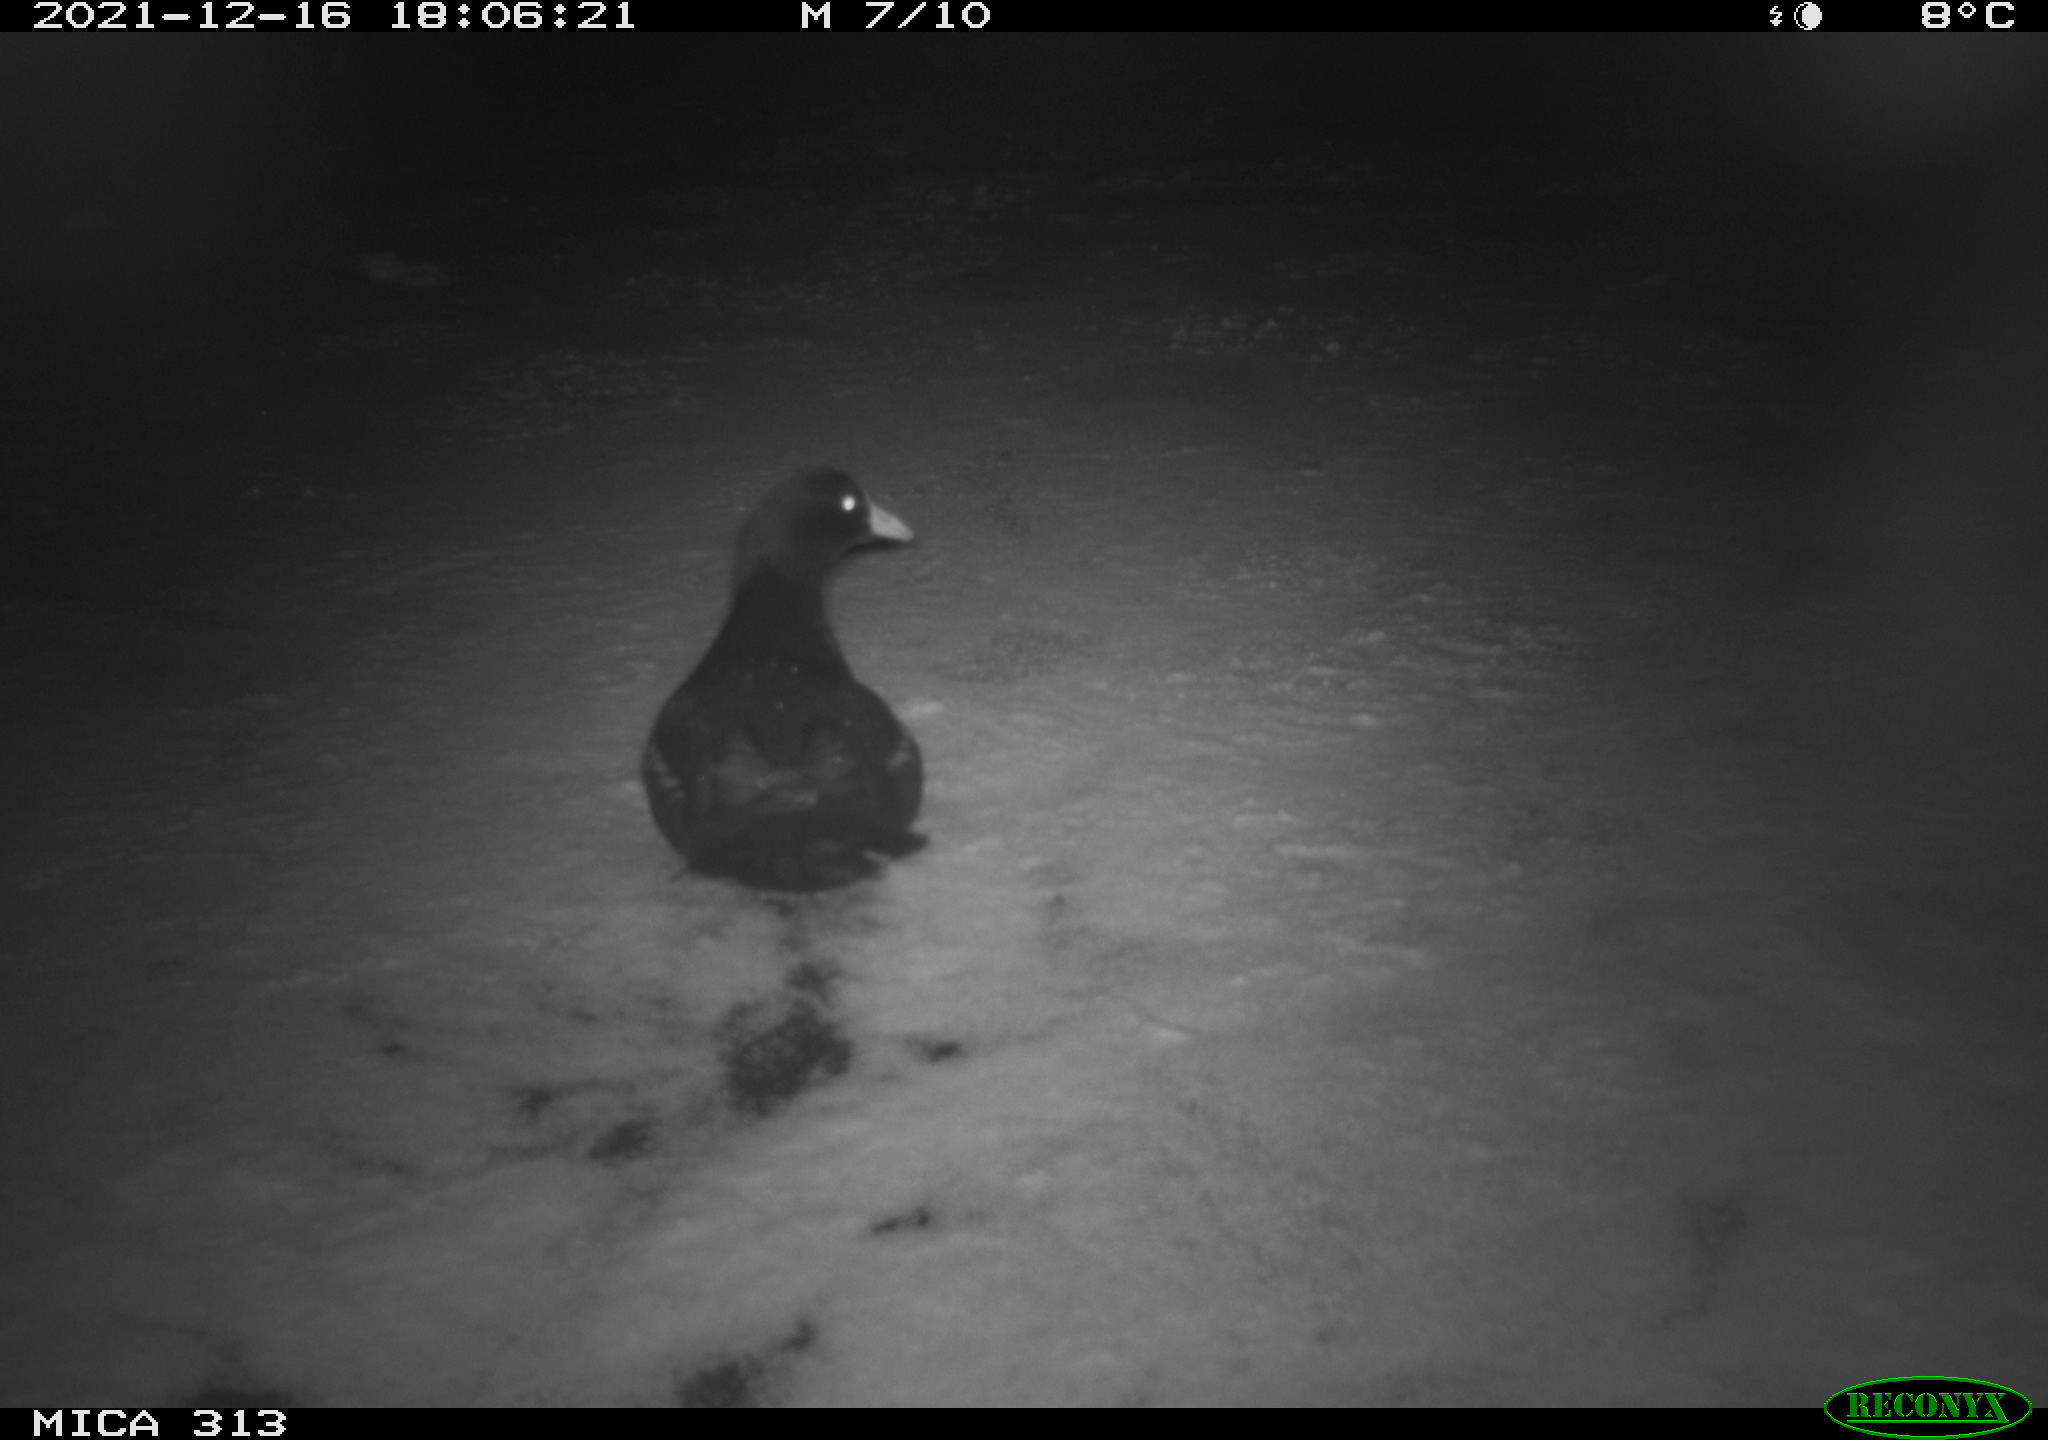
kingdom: Animalia
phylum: Chordata
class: Aves
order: Gruiformes
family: Rallidae
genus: Fulica
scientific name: Fulica atra
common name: Eurasian coot
